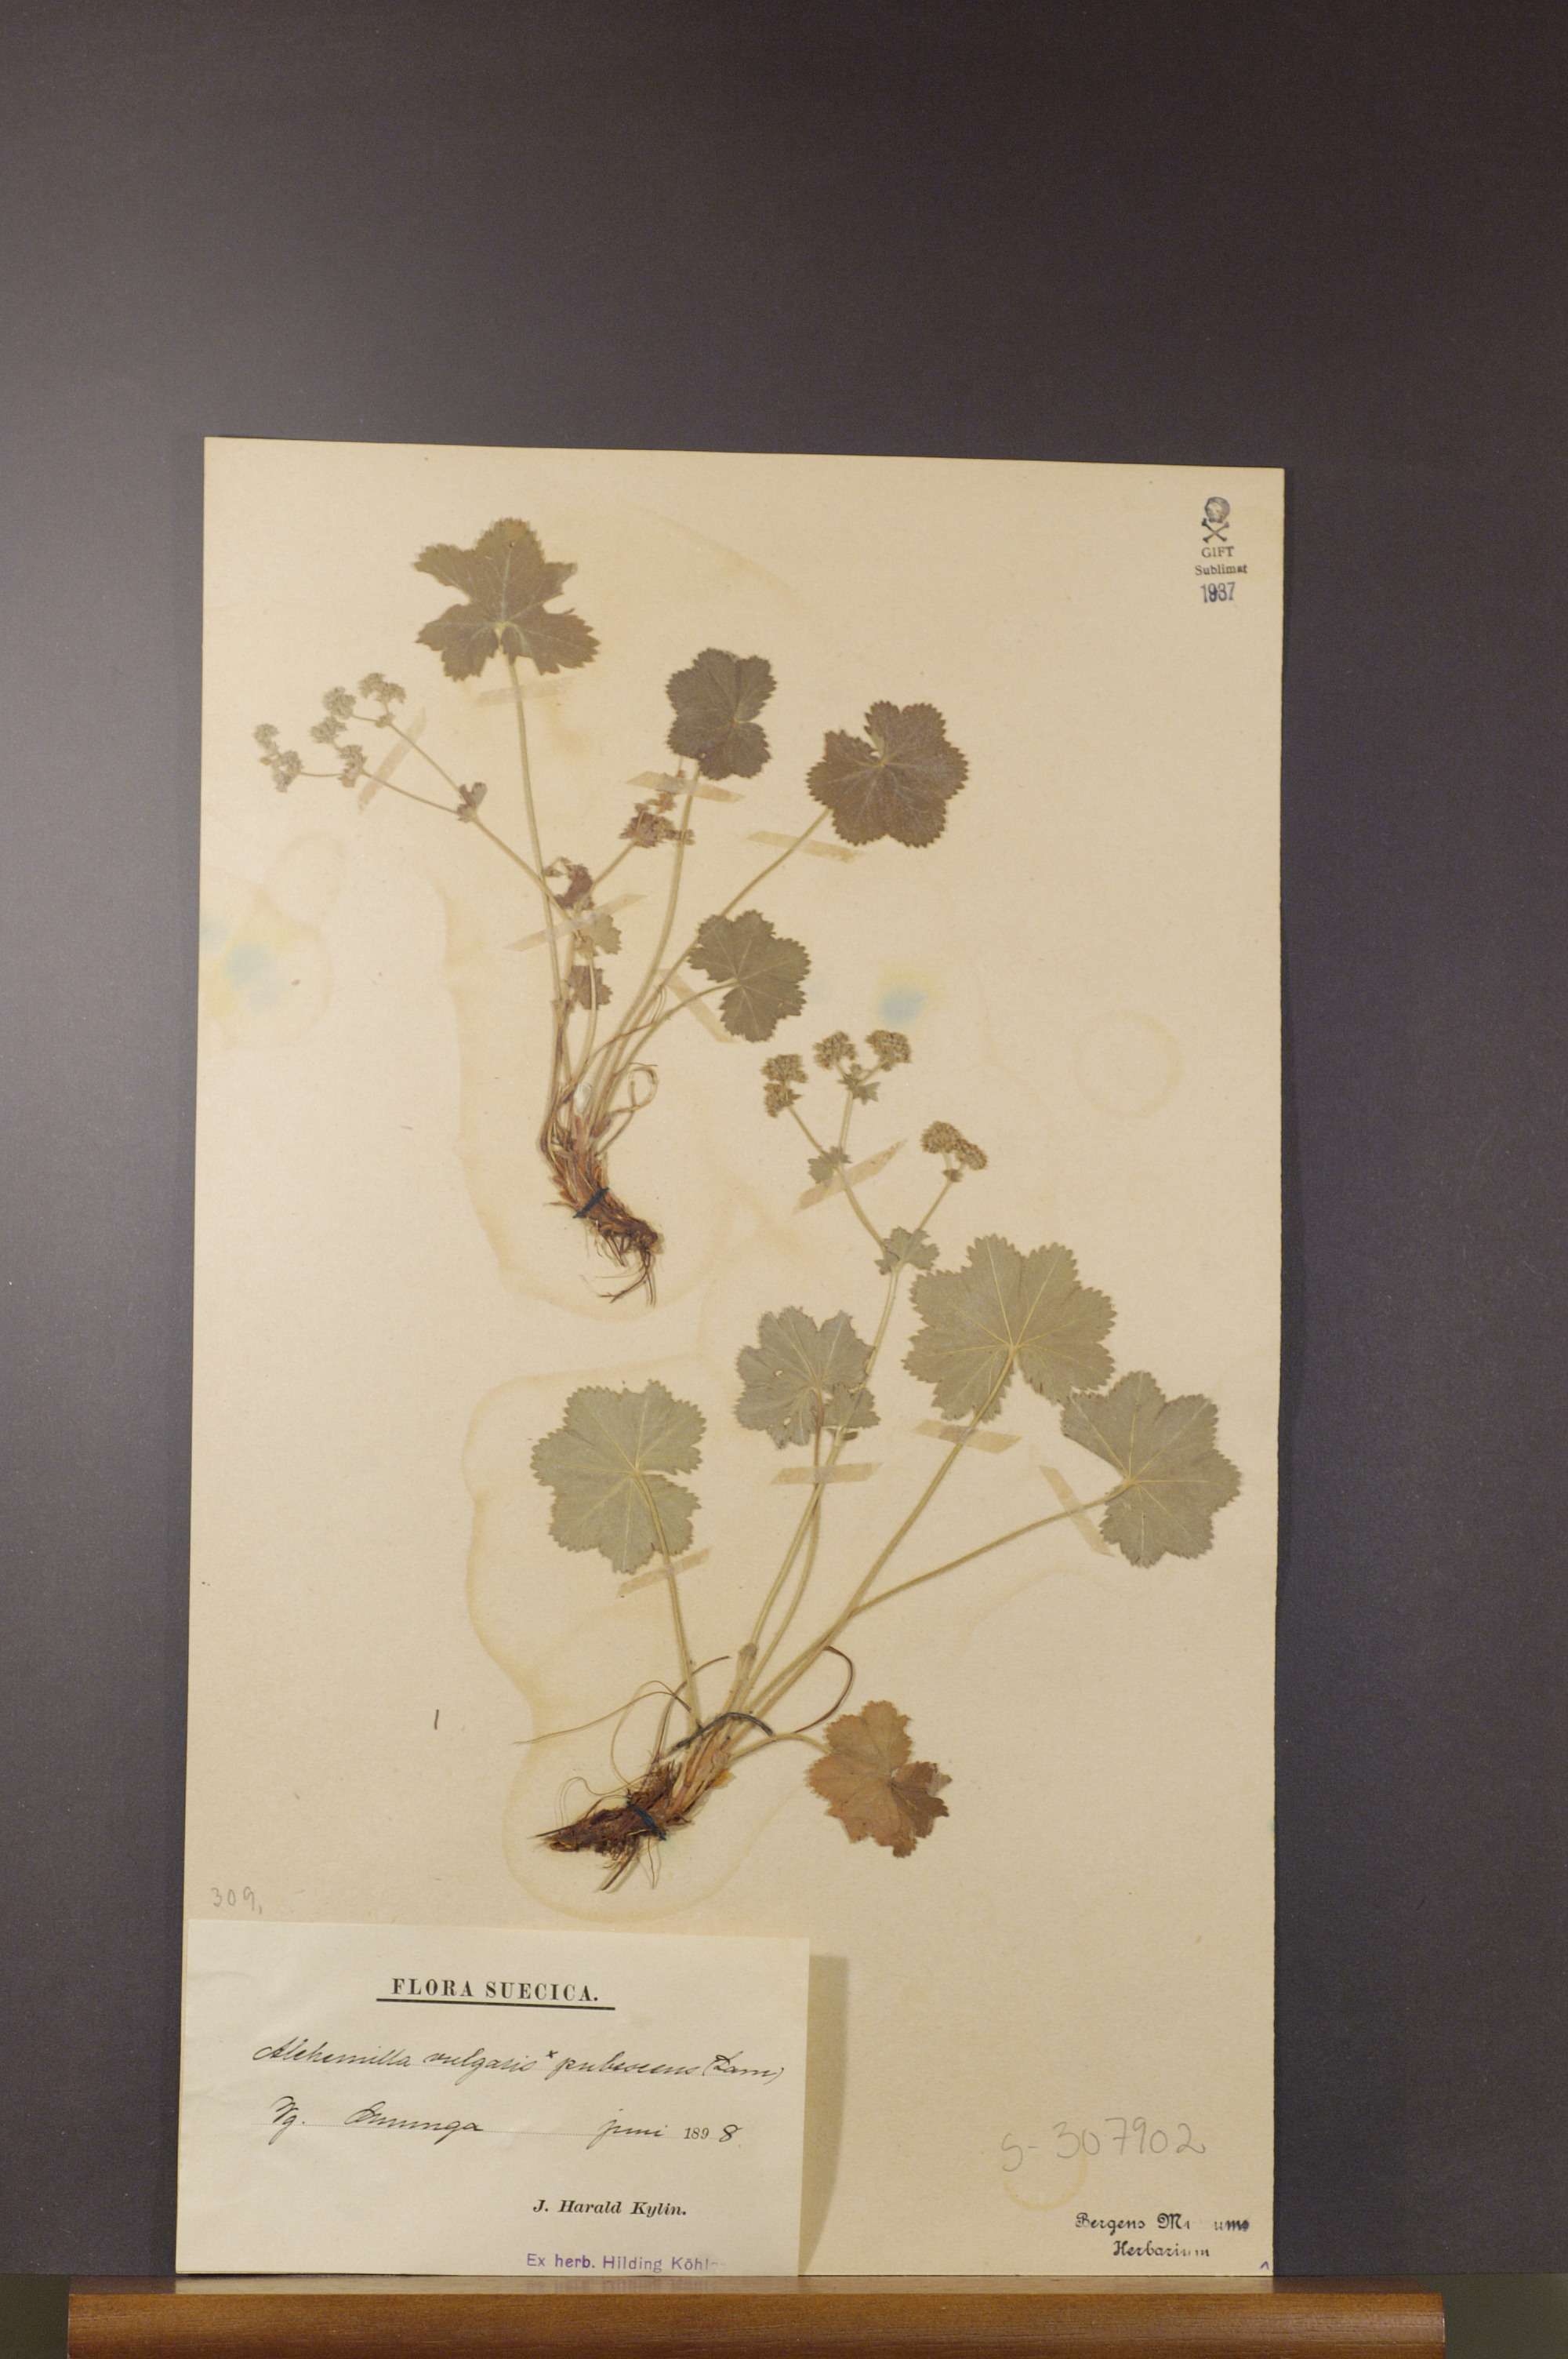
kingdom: Plantae
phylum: Tracheophyta
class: Magnoliopsida
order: Rosales
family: Rosaceae
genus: Alchemilla
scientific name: Alchemilla glaucescens
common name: Silky lady's mantle
